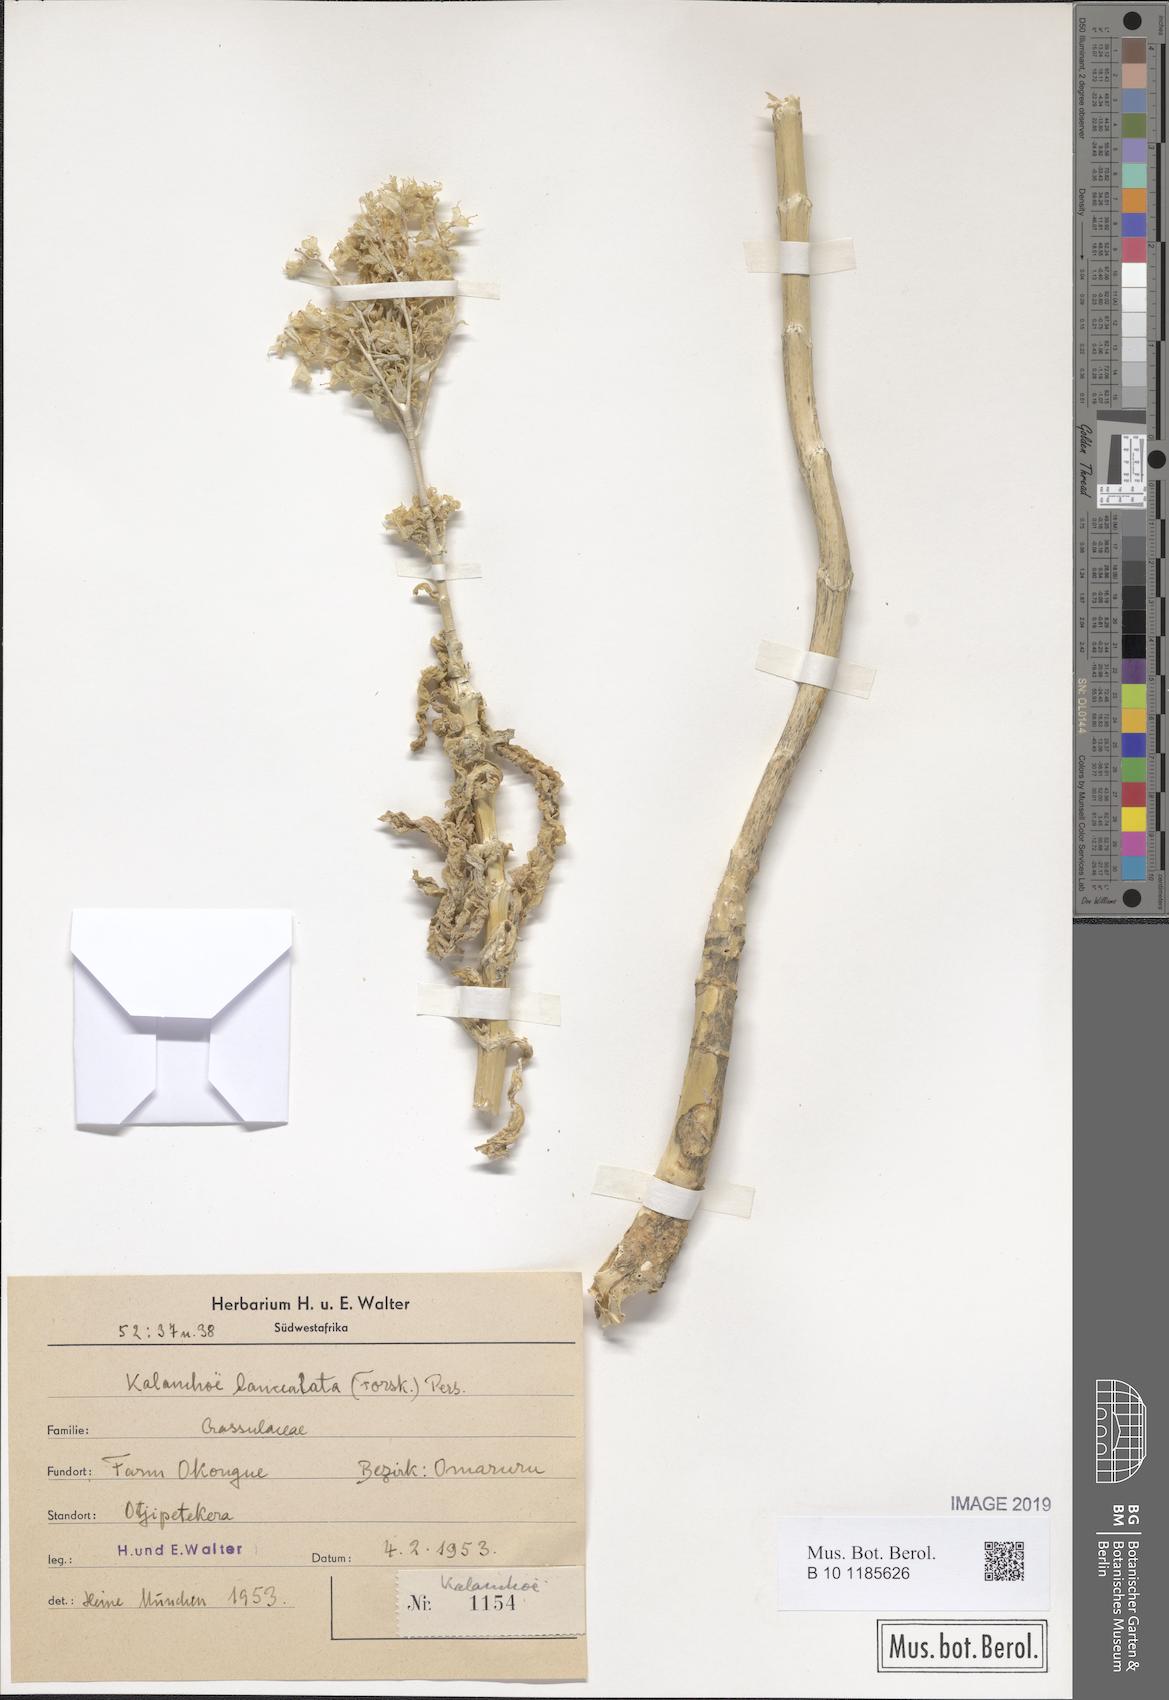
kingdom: Plantae
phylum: Tracheophyta
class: Magnoliopsida
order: Saxifragales
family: Crassulaceae
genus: Kalanchoe
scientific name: Kalanchoe lanceolata
